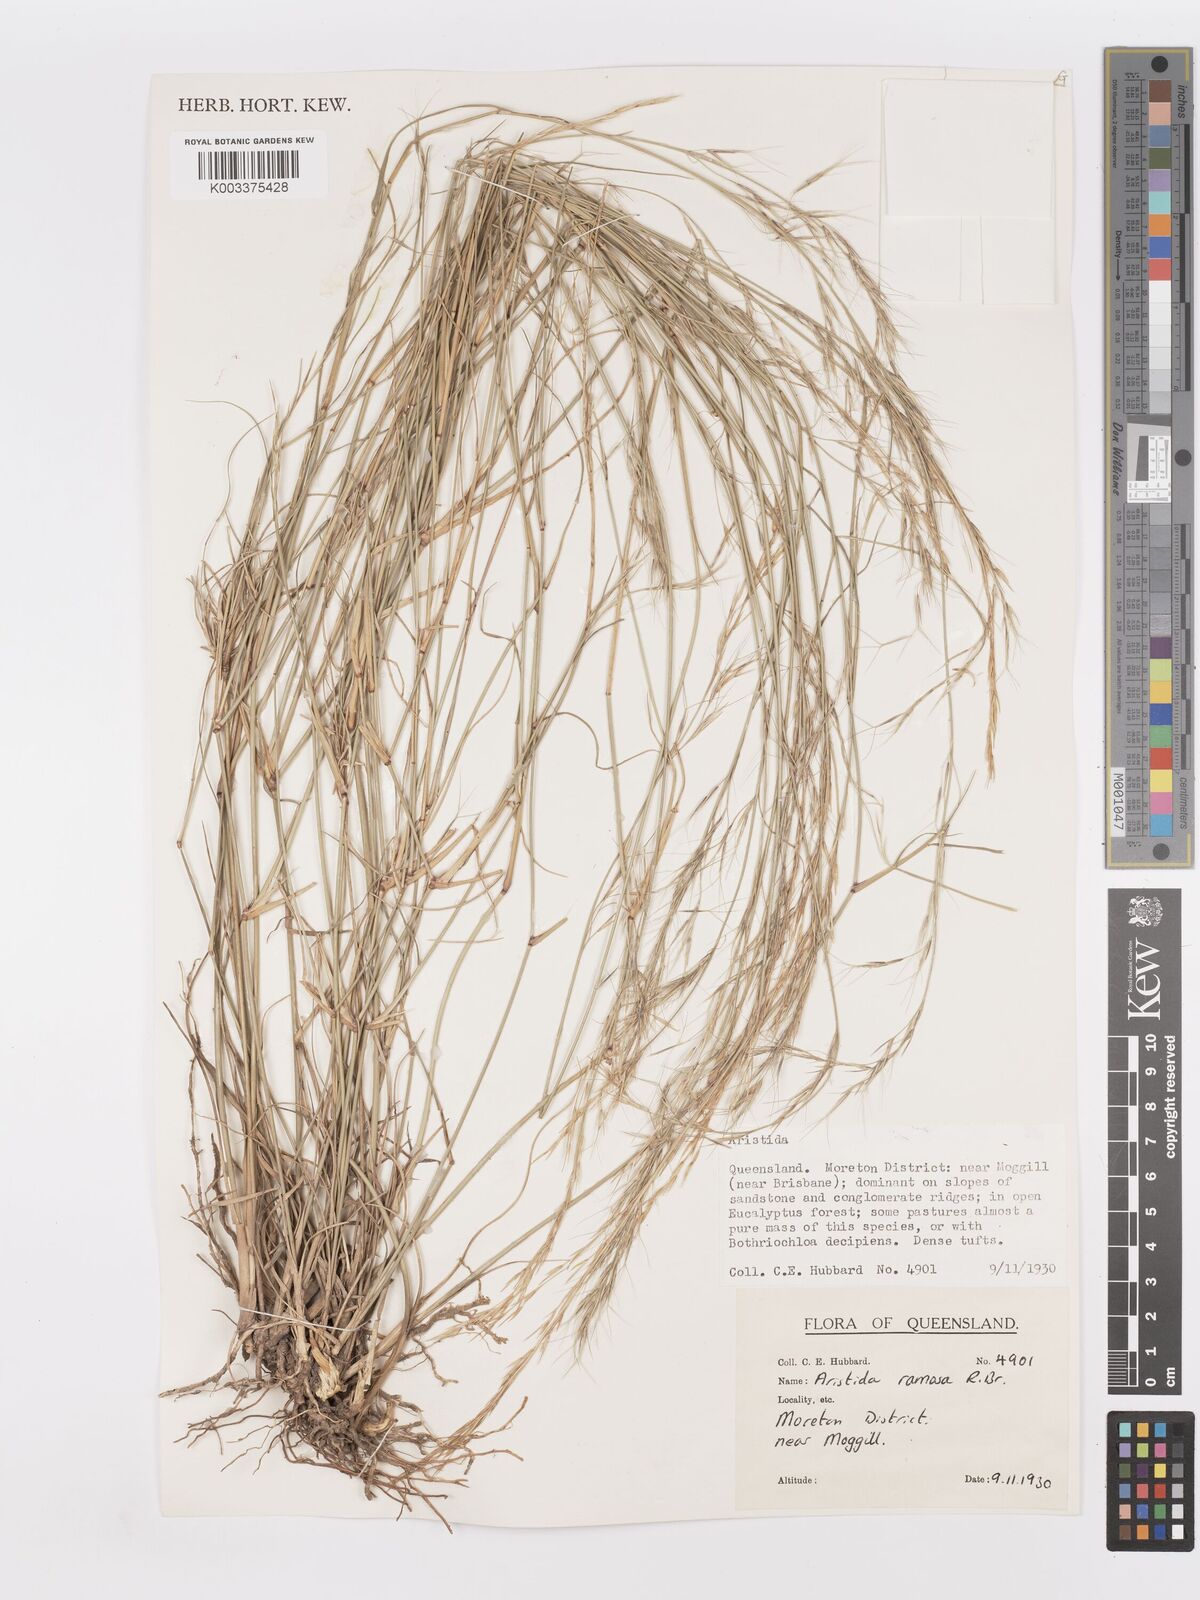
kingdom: Plantae
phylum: Tracheophyta
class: Liliopsida
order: Poales
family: Poaceae
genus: Aristida
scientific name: Aristida ramosa
